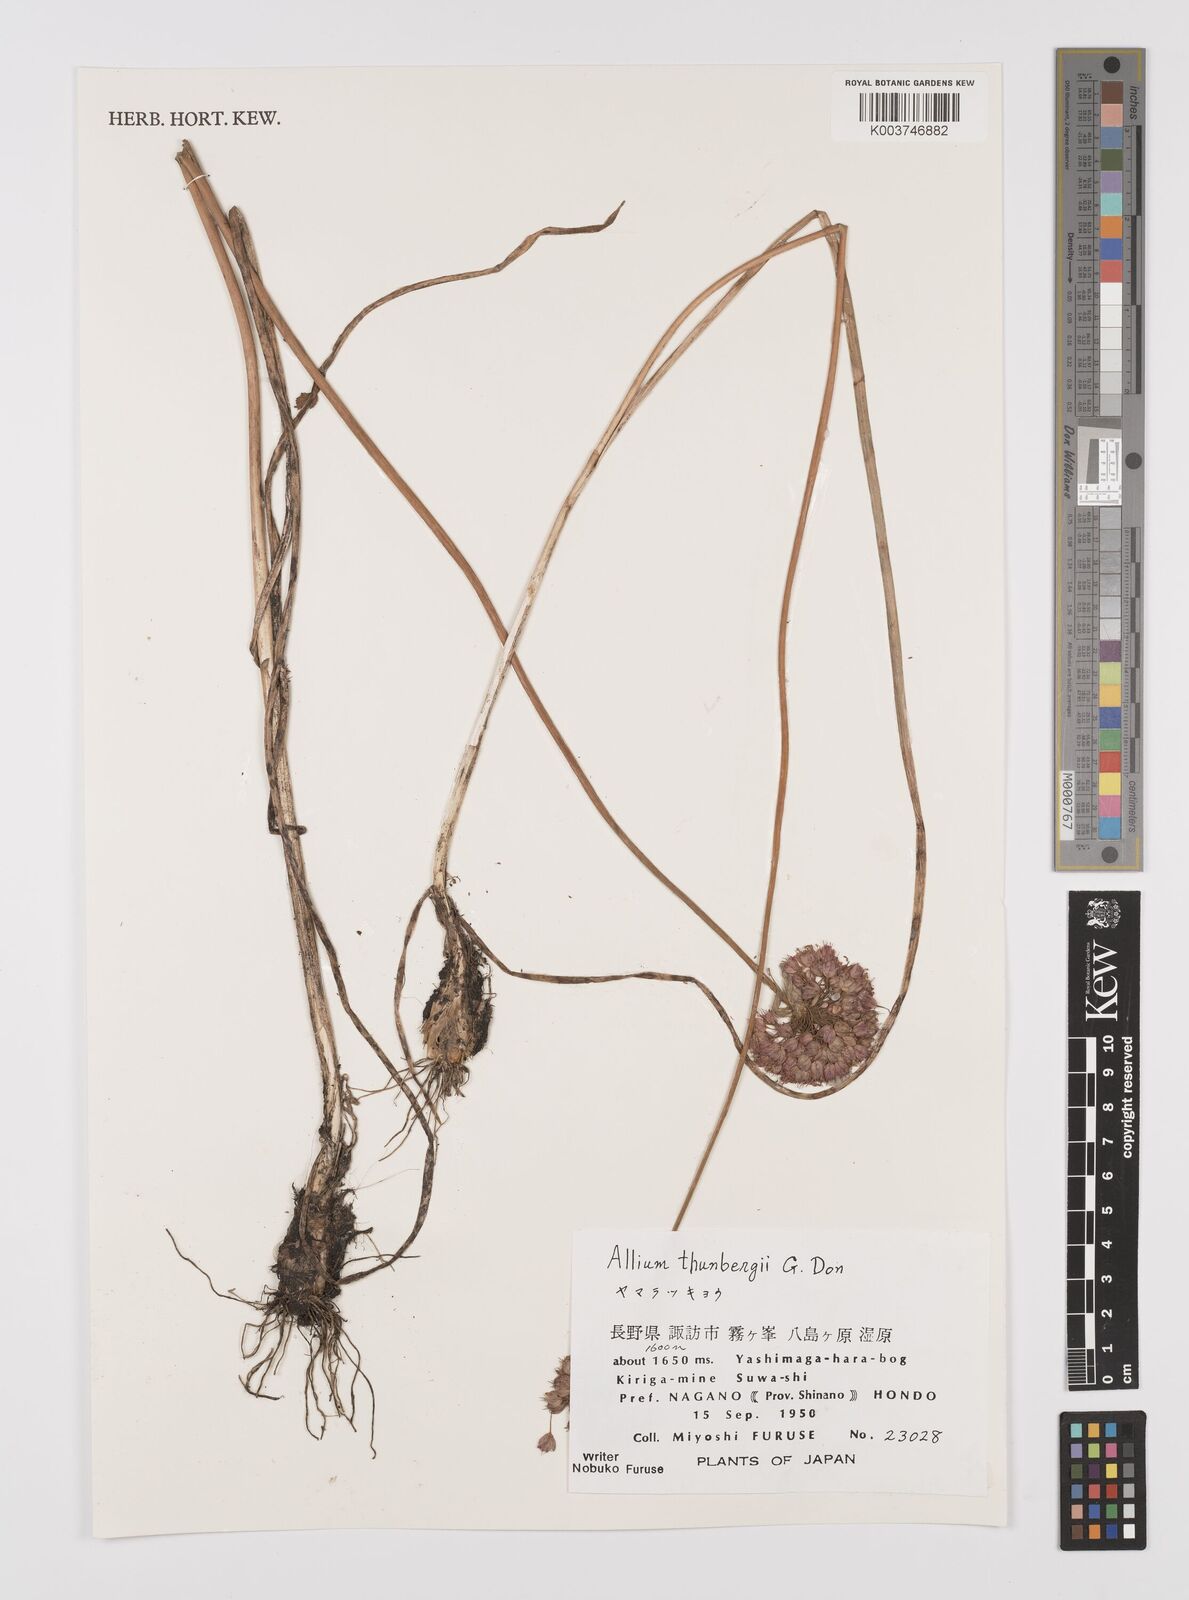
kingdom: Plantae
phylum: Tracheophyta
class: Liliopsida
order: Asparagales
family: Amaryllidaceae
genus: Allium
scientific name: Allium thunbergii
